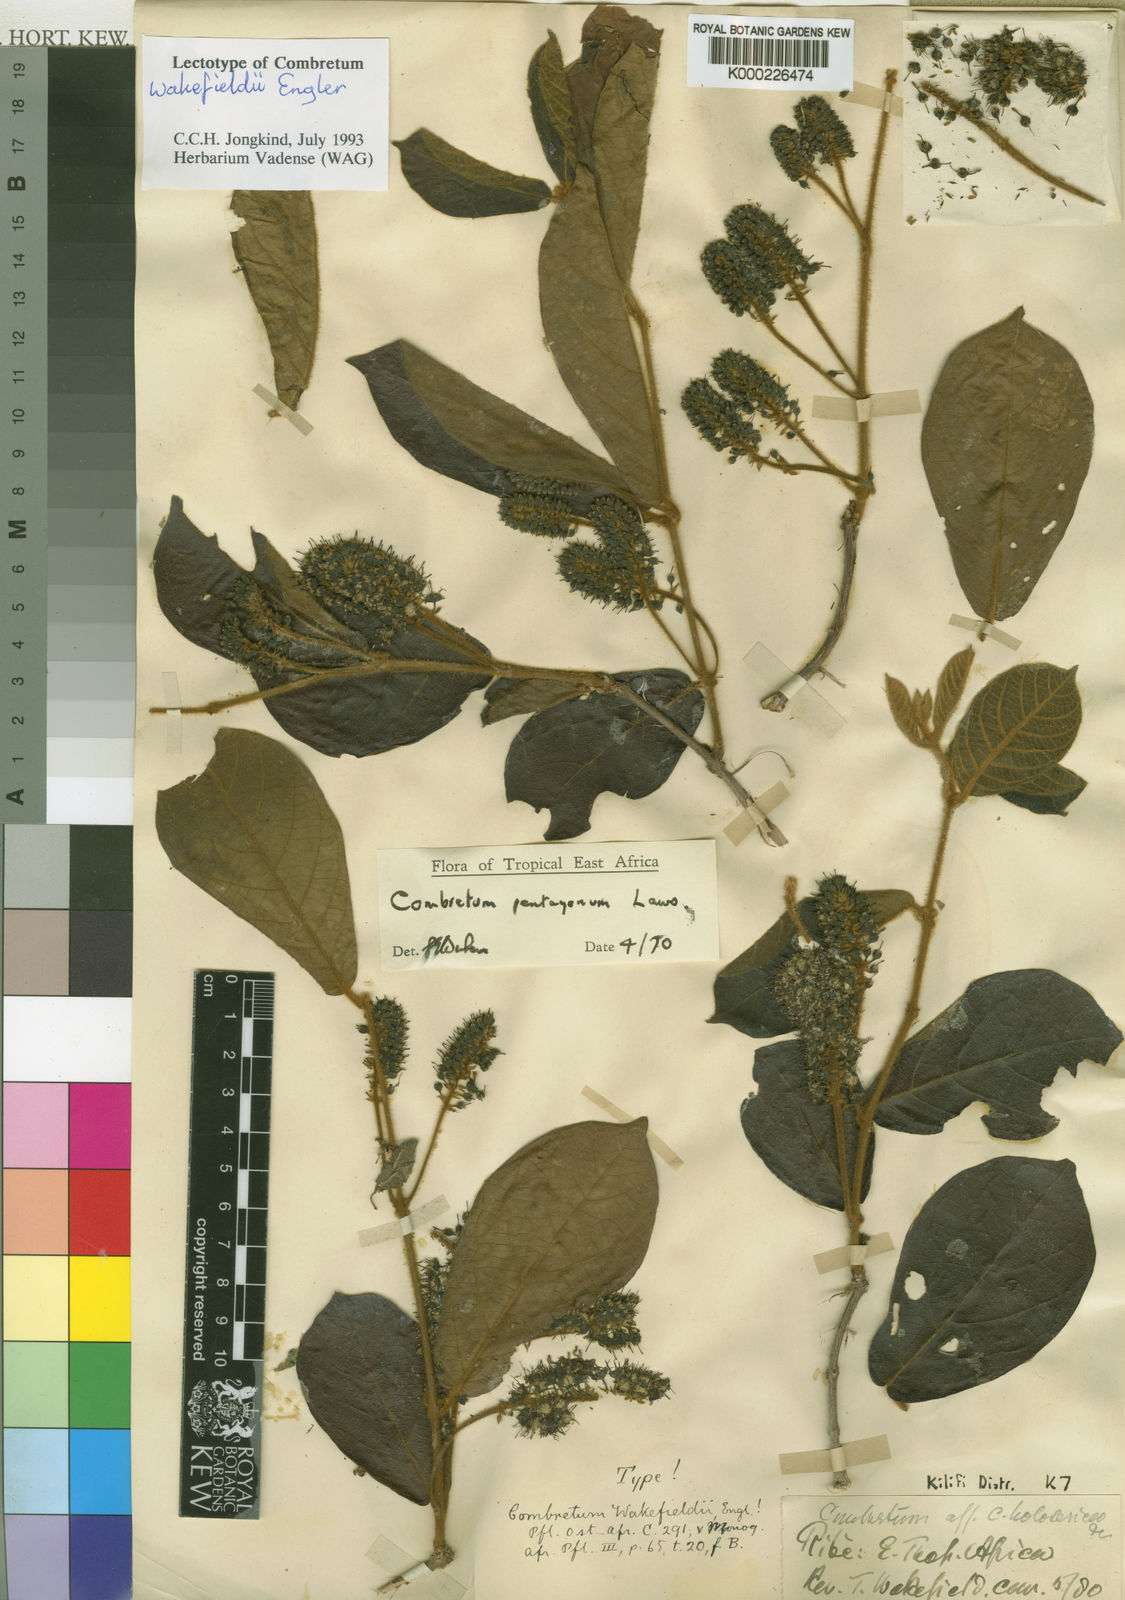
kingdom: Plantae
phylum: Tracheophyta
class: Magnoliopsida
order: Myrtales
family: Combretaceae
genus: Combretum
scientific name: Combretum paniculatum
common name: Fire vine
